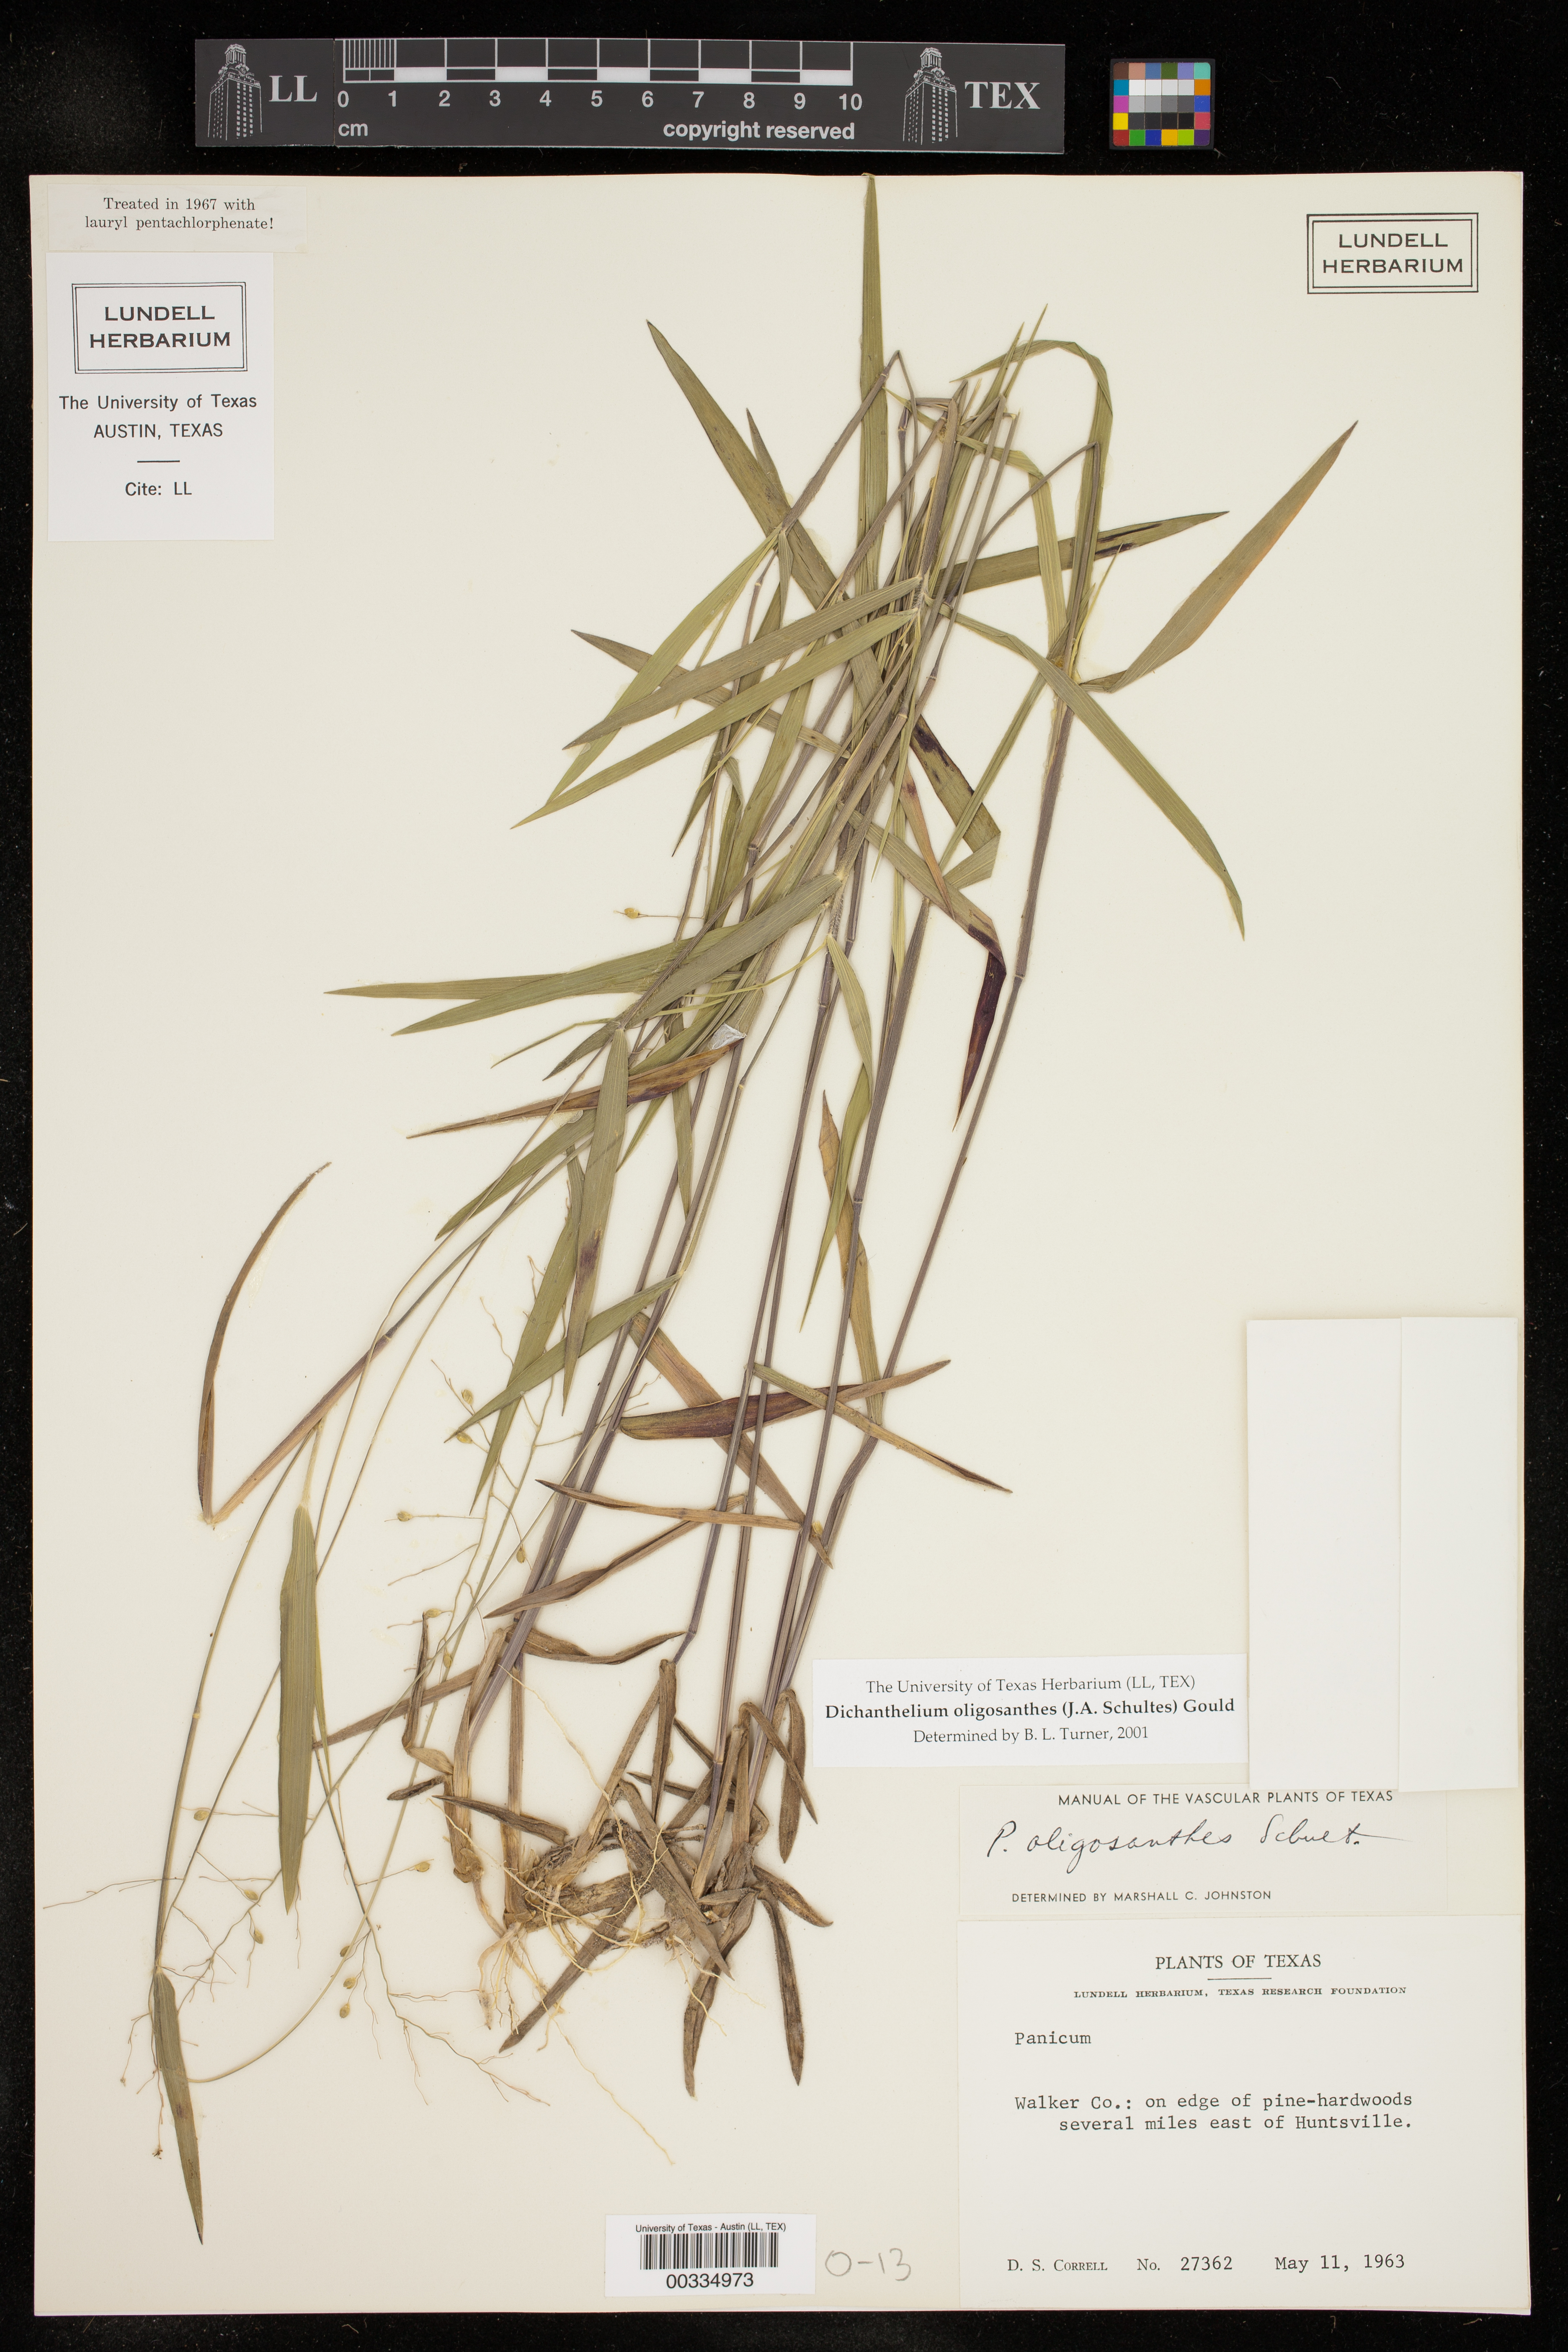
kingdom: Plantae
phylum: Tracheophyta
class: Liliopsida
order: Poales
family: Poaceae
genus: Dichanthelium
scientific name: Dichanthelium oligosanthes
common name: Few-anther obscuregrass
